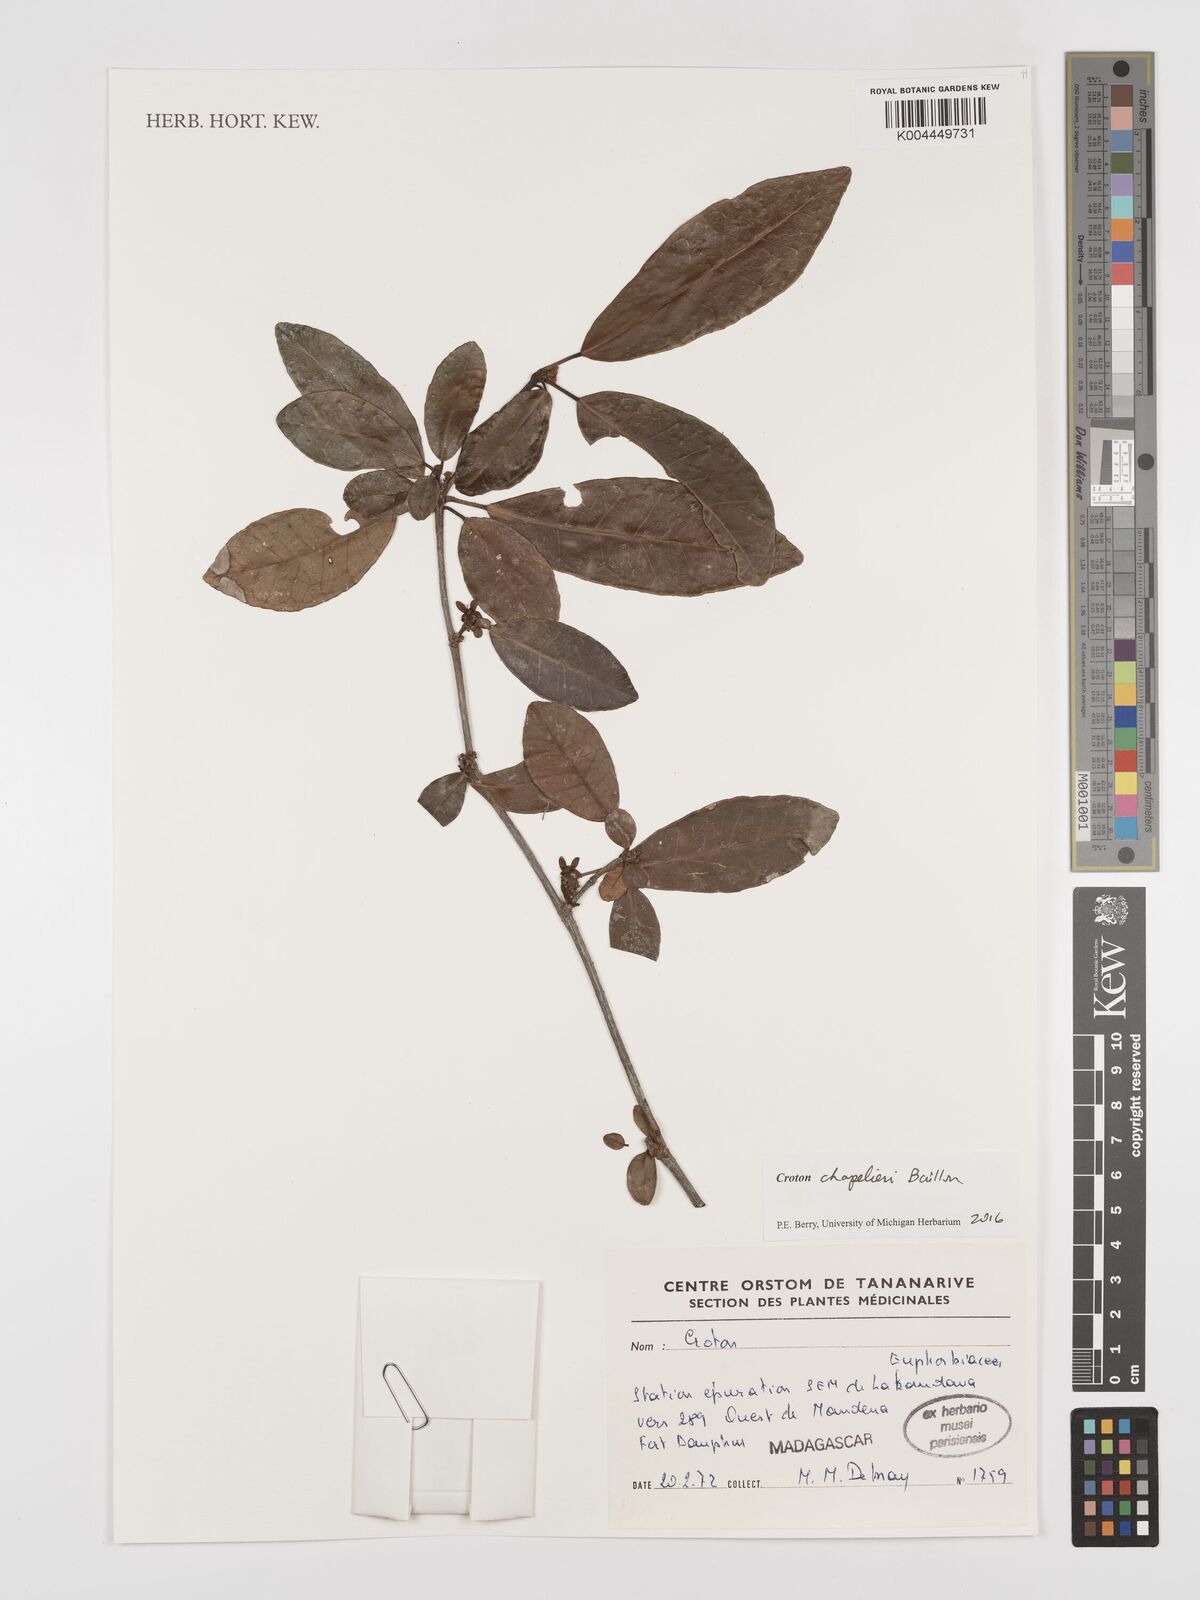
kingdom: Plantae
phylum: Tracheophyta
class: Magnoliopsida
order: Malpighiales
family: Euphorbiaceae
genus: Croton
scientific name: Croton chapelieri
